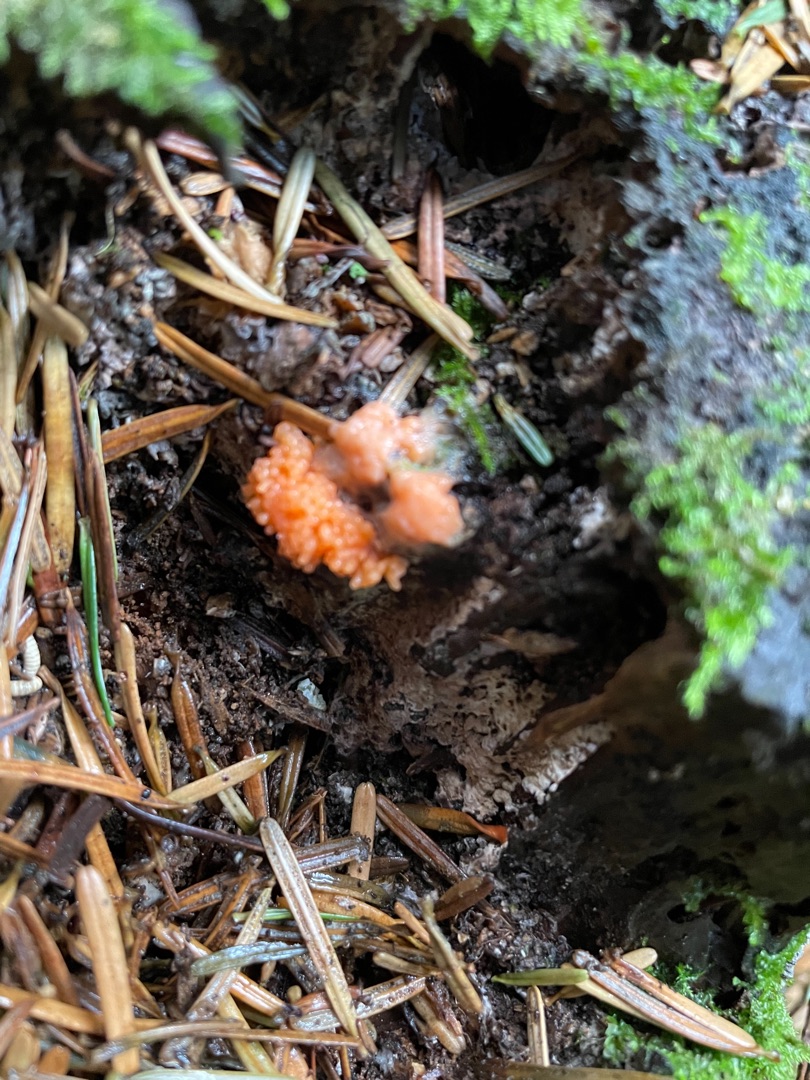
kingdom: Protozoa
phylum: Mycetozoa
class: Myxomycetes
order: Cribrariales
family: Tubiferaceae
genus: Tubifera
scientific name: Tubifera ferruginosa
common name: Kanel-støvrør
